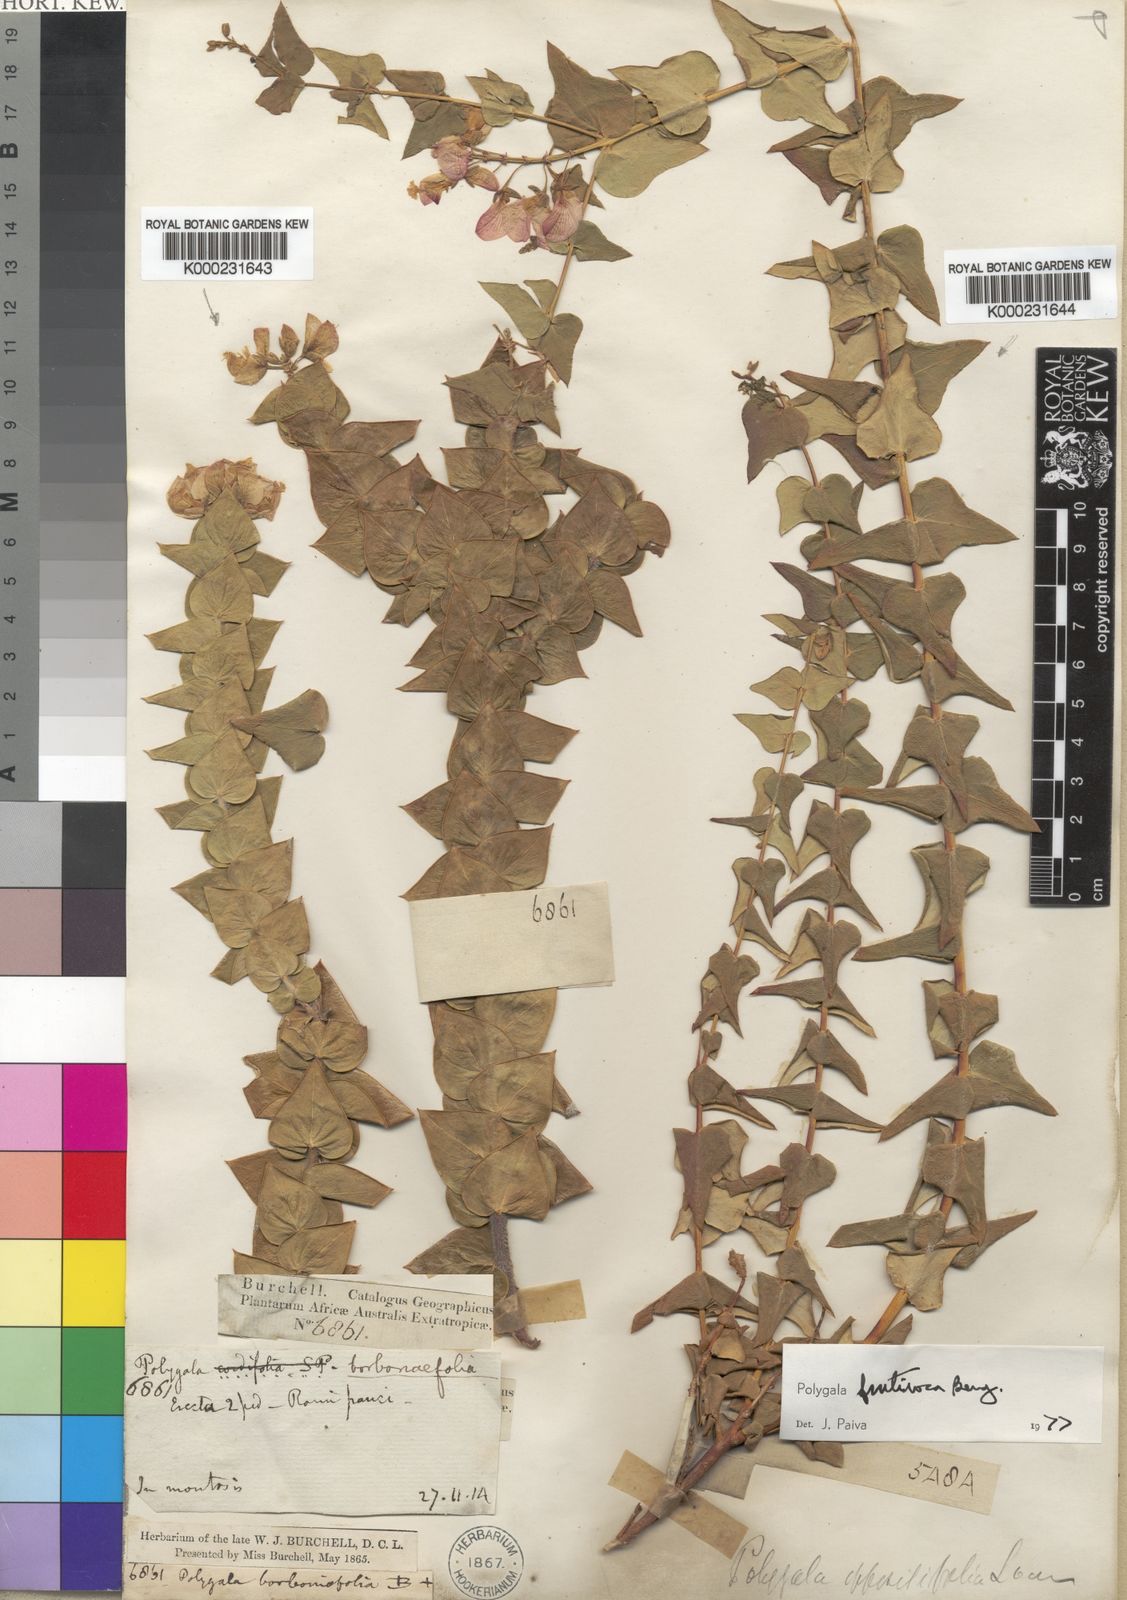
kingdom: Plantae
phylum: Tracheophyta
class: Magnoliopsida
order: Fabales
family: Polygalaceae
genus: Polygala
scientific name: Polygala fruticosa
